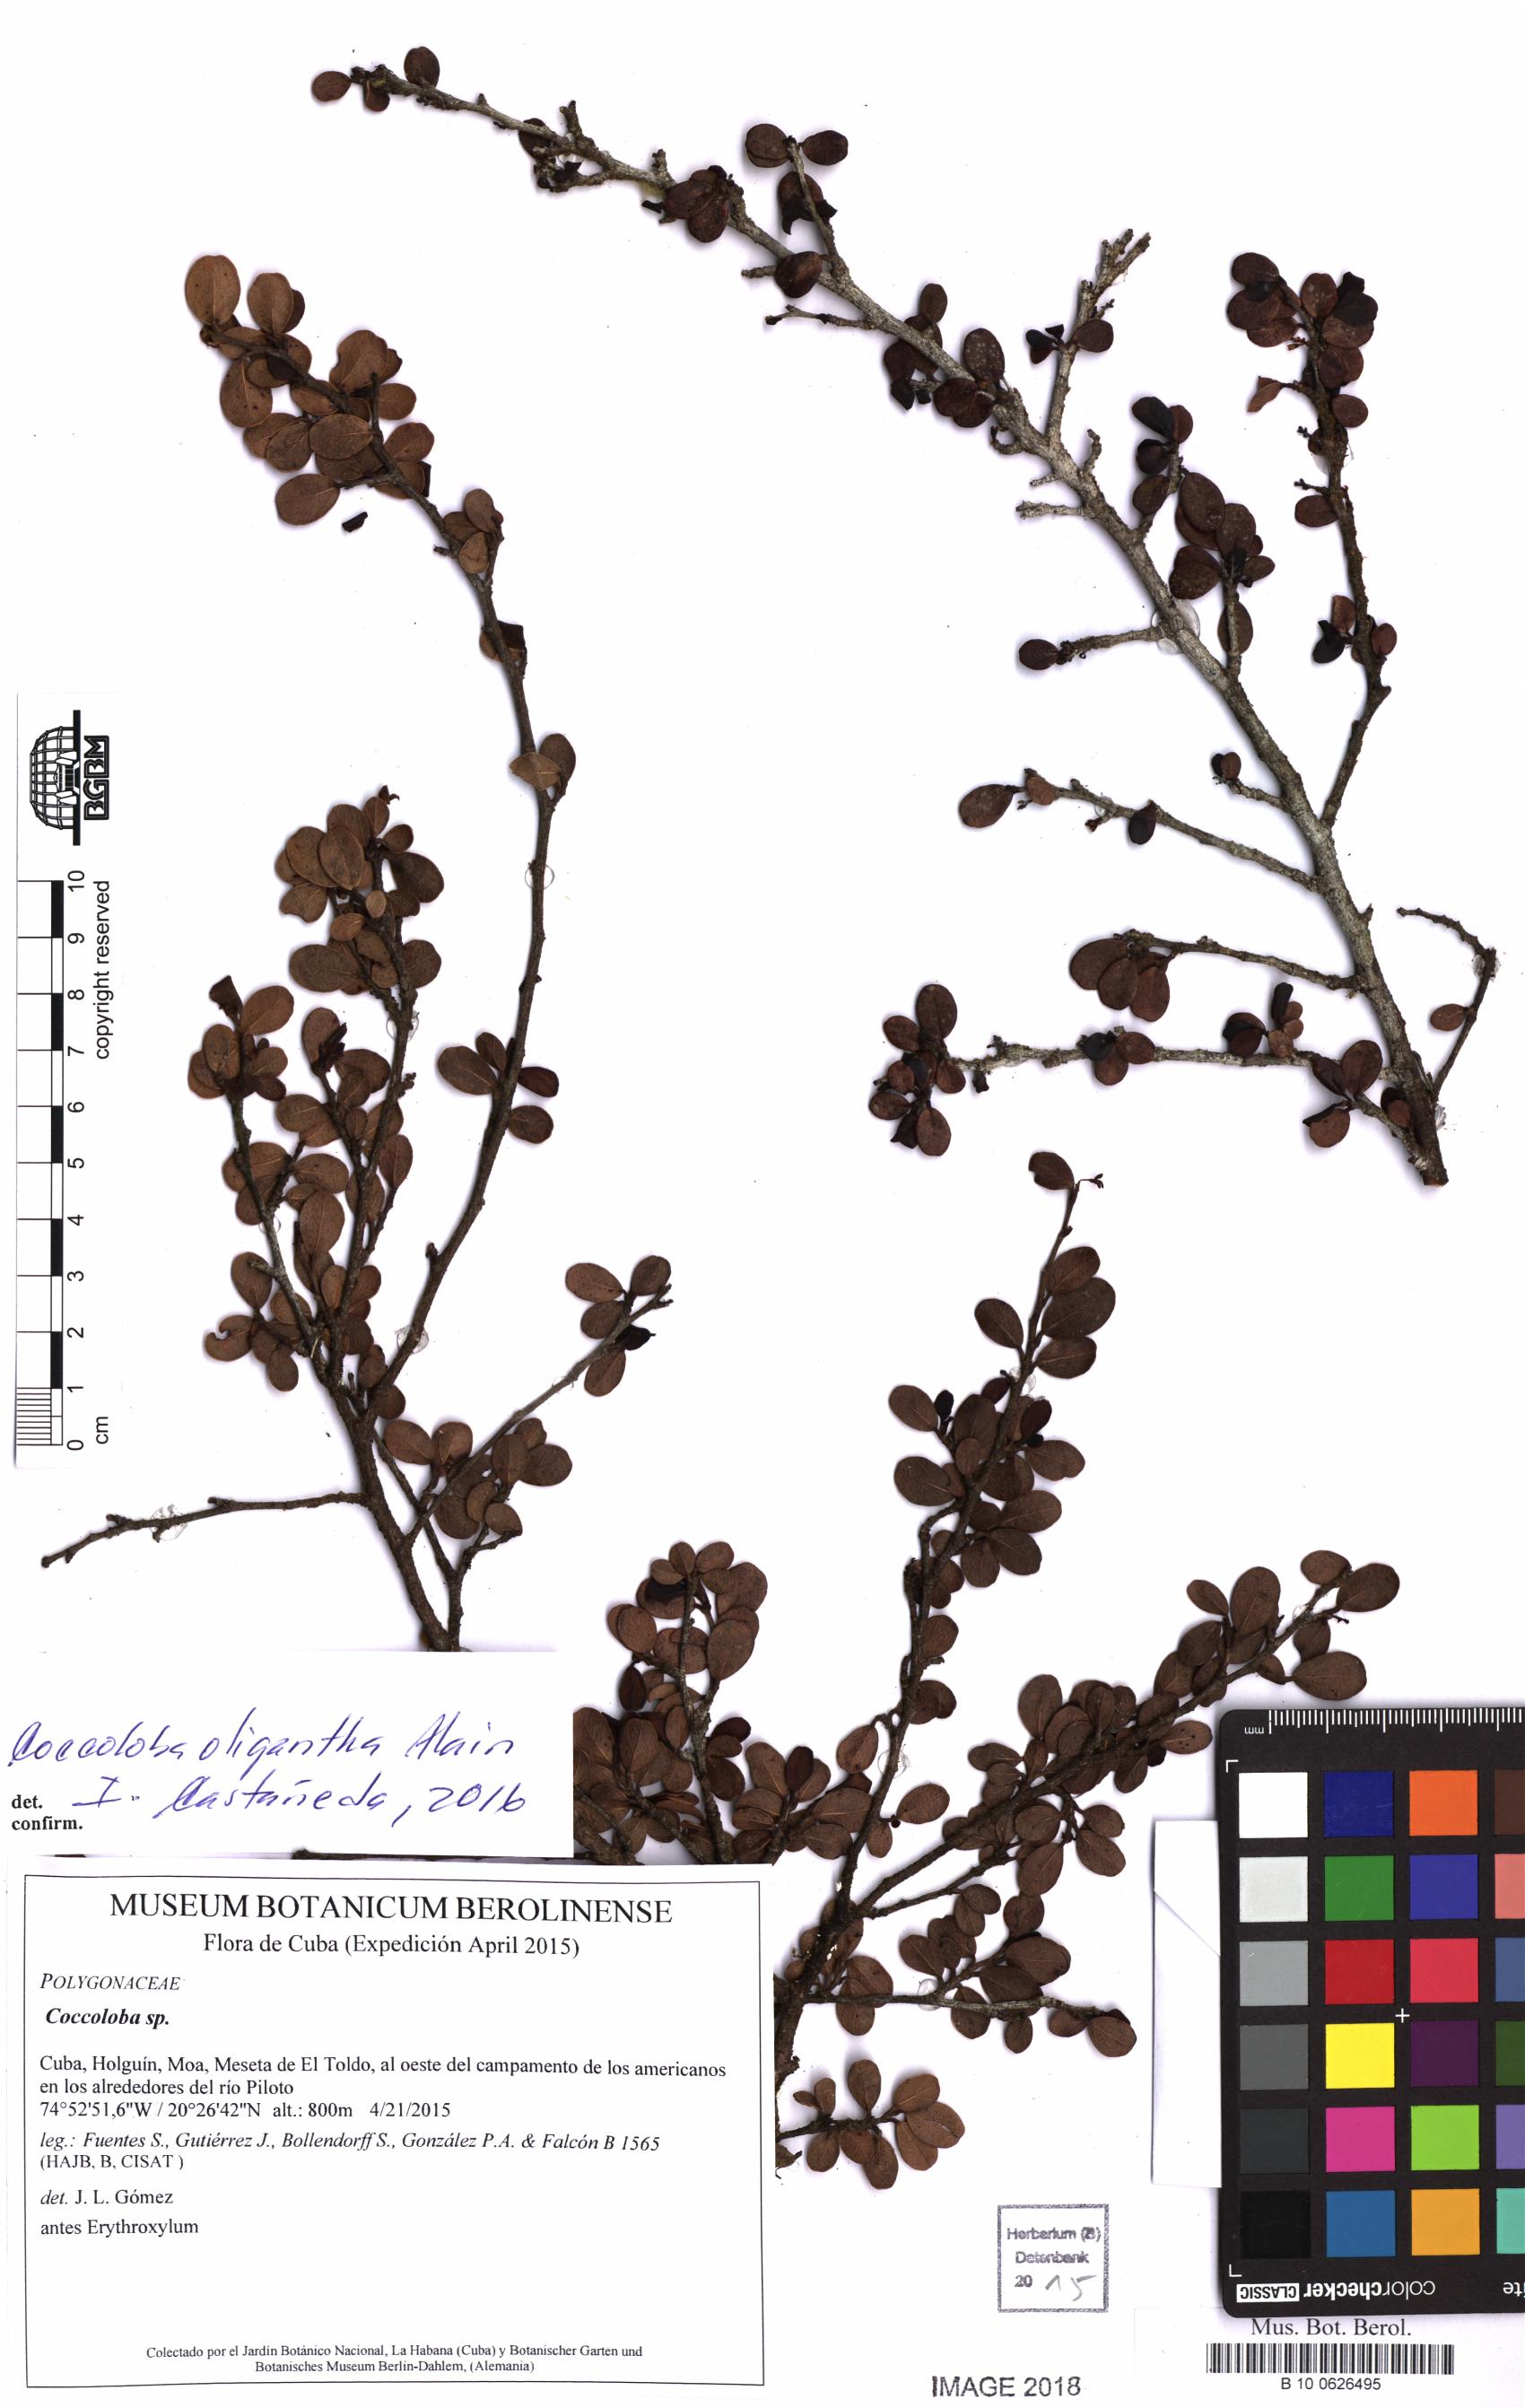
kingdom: Plantae
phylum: Tracheophyta
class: Magnoliopsida
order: Caryophyllales
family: Polygonaceae
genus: Coccoloba
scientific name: Coccoloba
